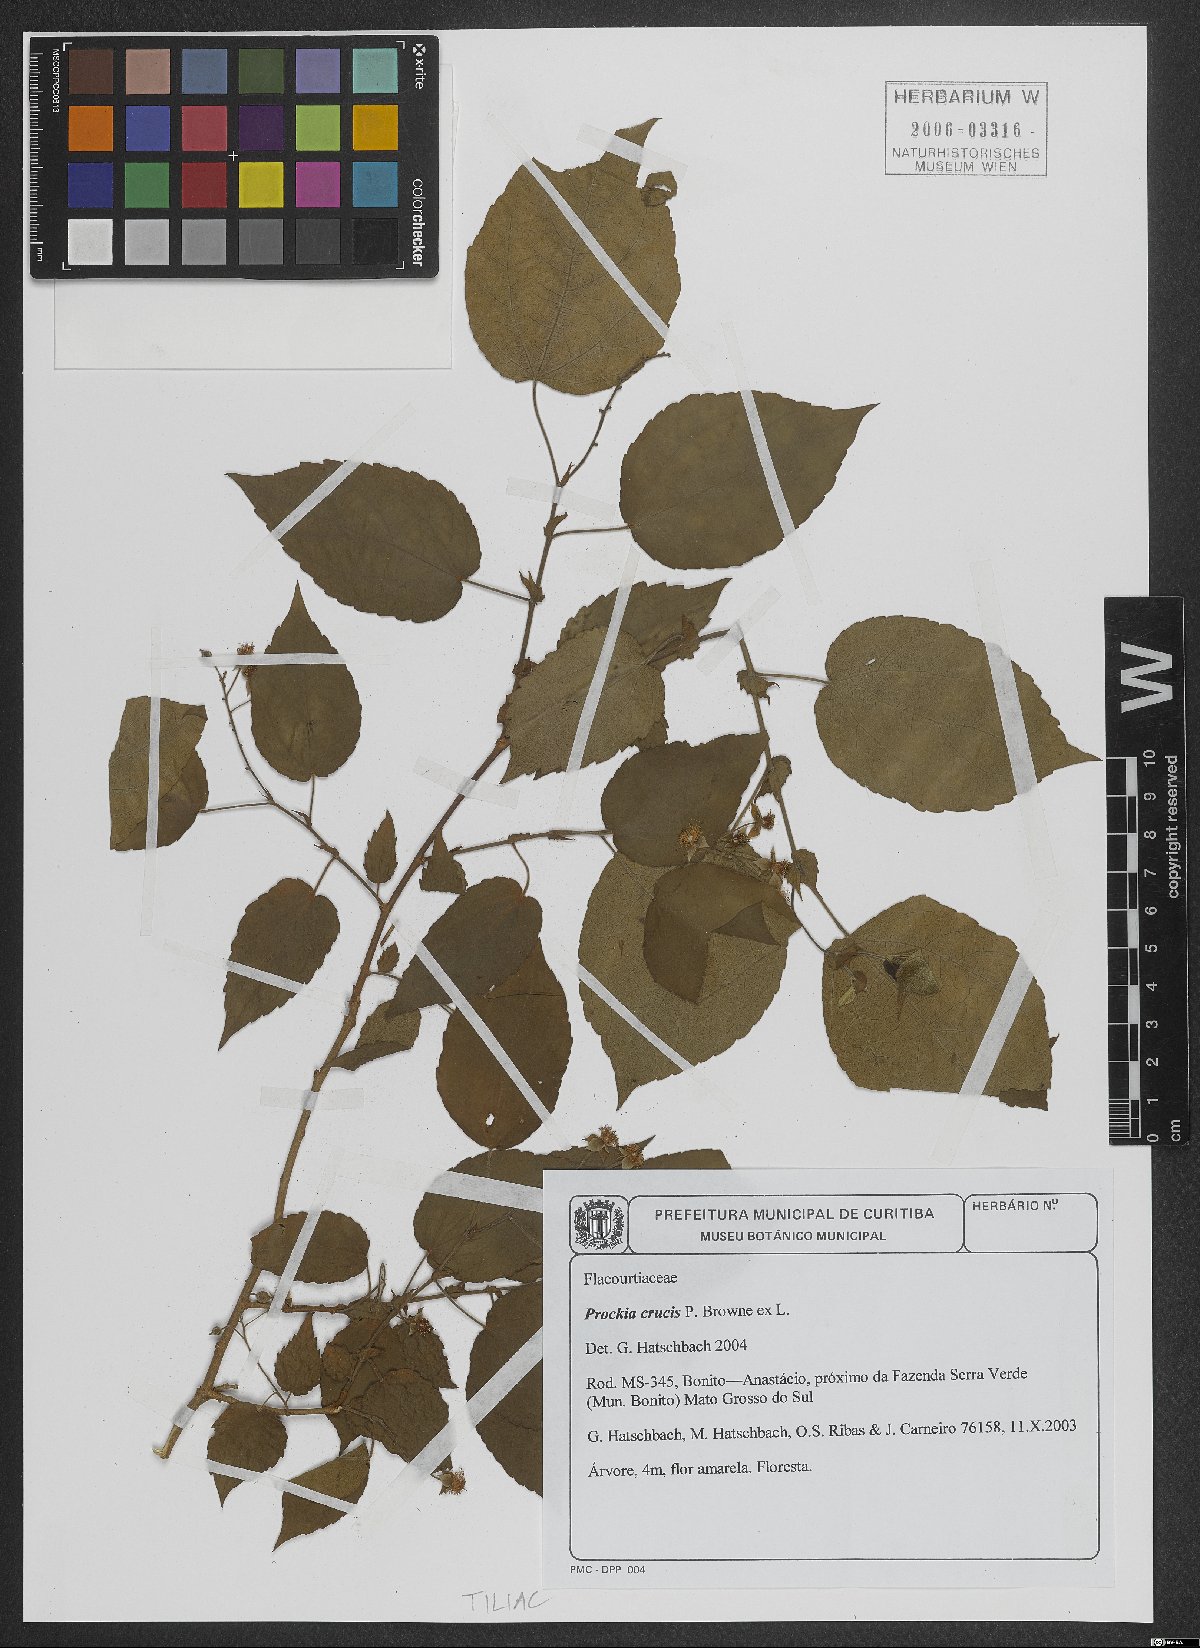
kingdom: Plantae
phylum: Tracheophyta
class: Magnoliopsida
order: Malpighiales
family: Salicaceae
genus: Prockia
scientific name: Prockia crucis
